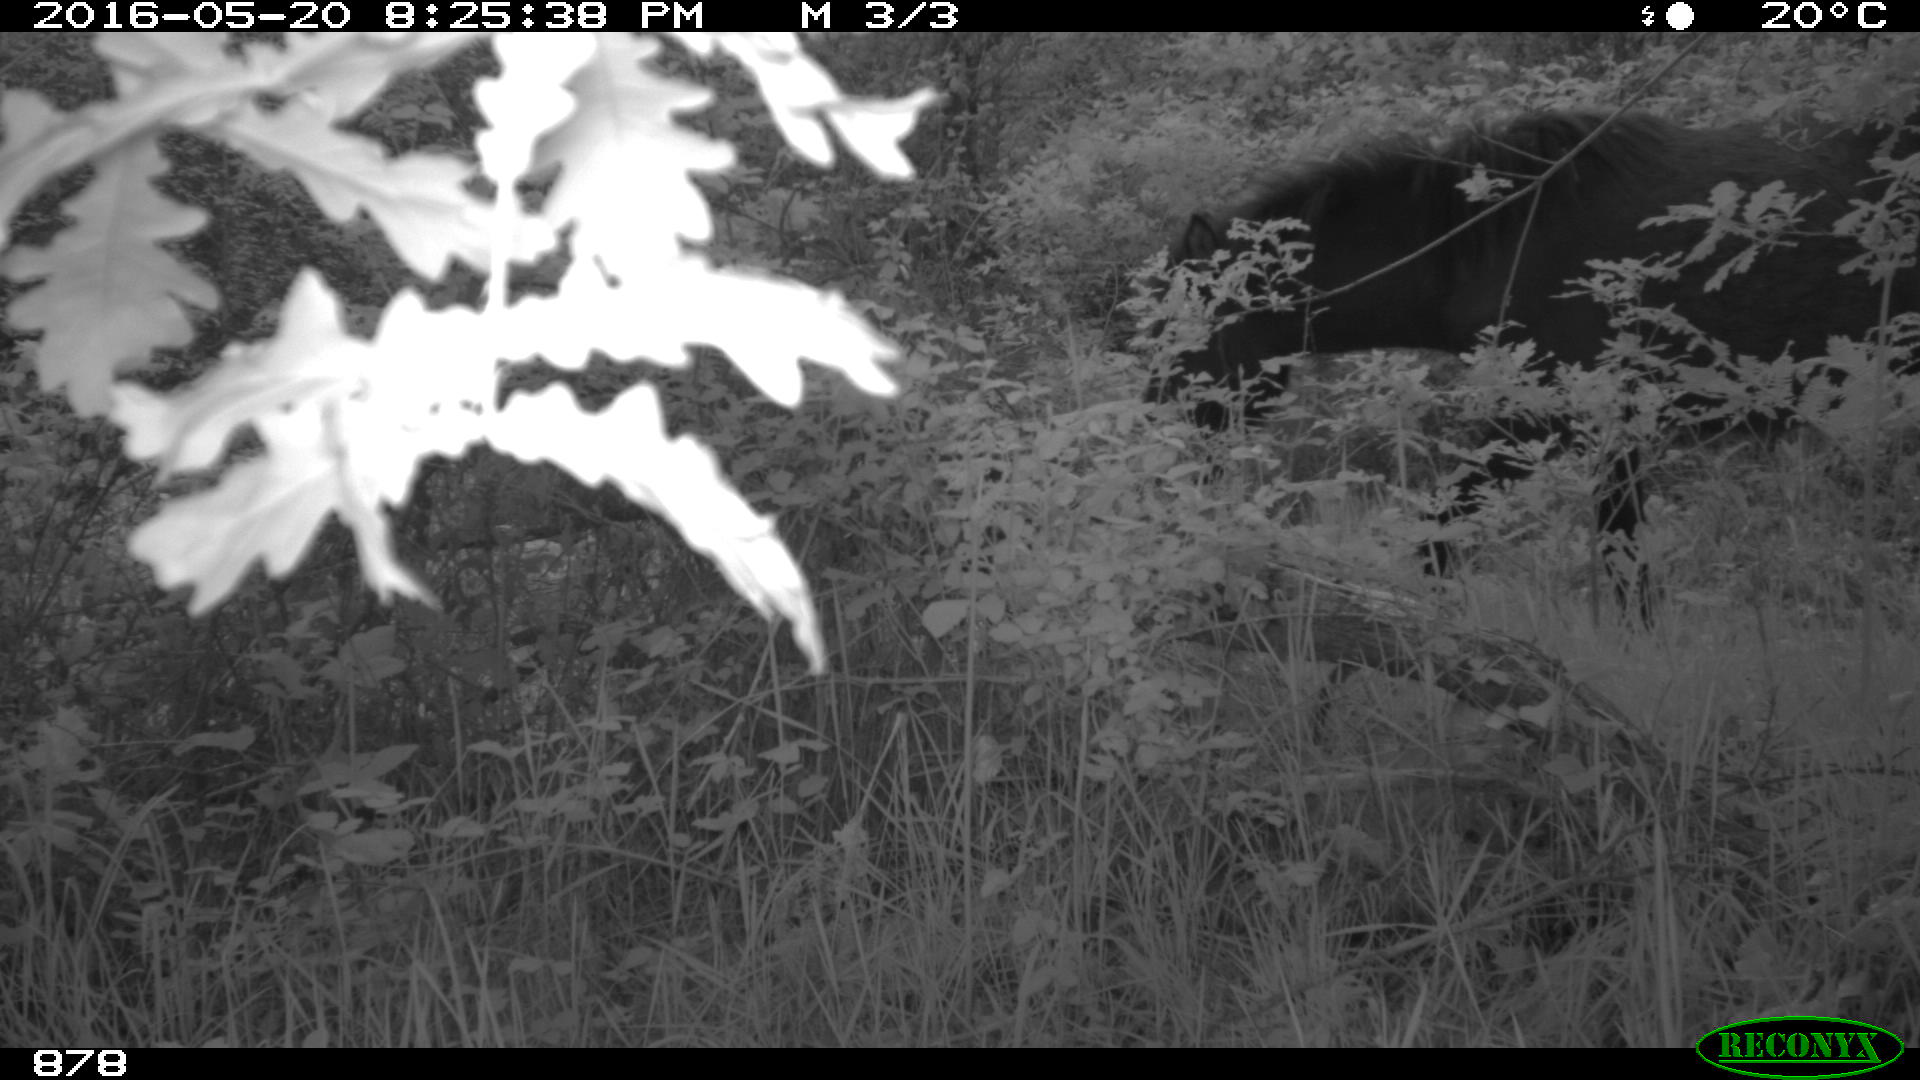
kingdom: Animalia
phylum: Chordata
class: Mammalia
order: Perissodactyla
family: Equidae
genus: Equus
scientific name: Equus caballus
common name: Horse
